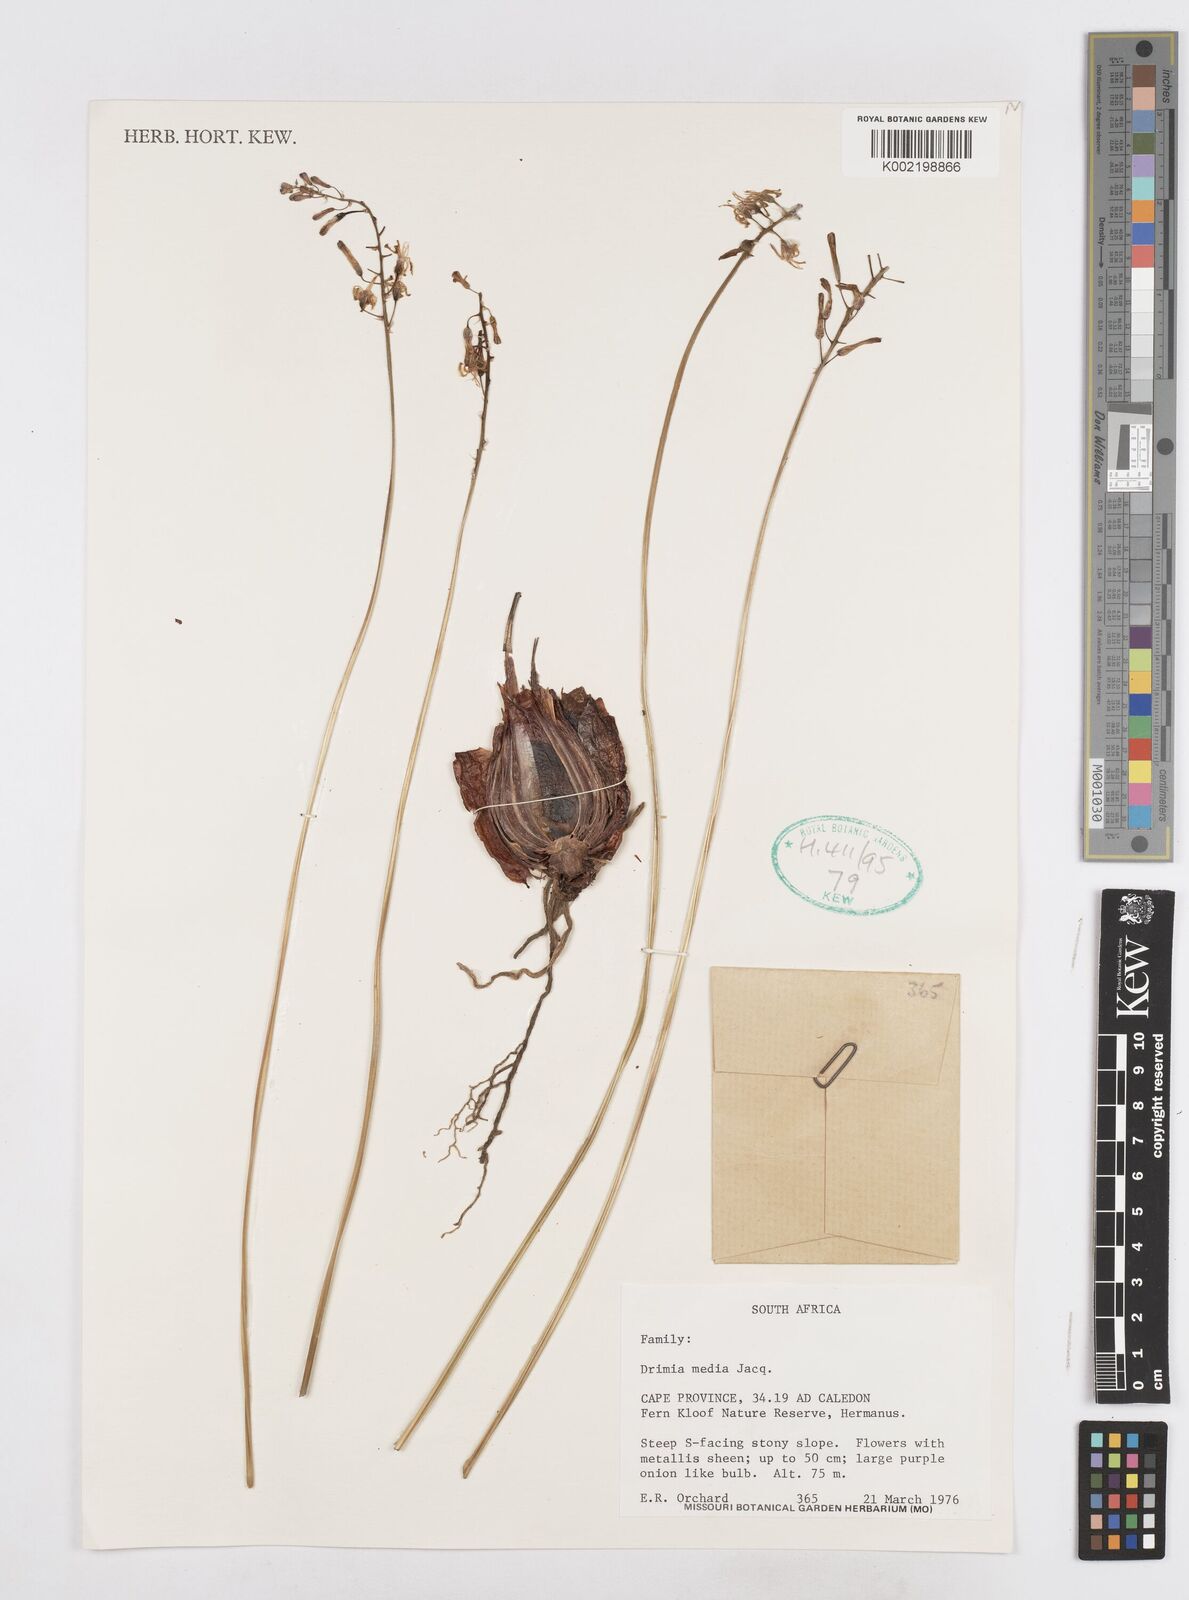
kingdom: Plantae
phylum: Tracheophyta
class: Liliopsida
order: Asparagales
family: Asparagaceae
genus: Drimia
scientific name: Drimia media
